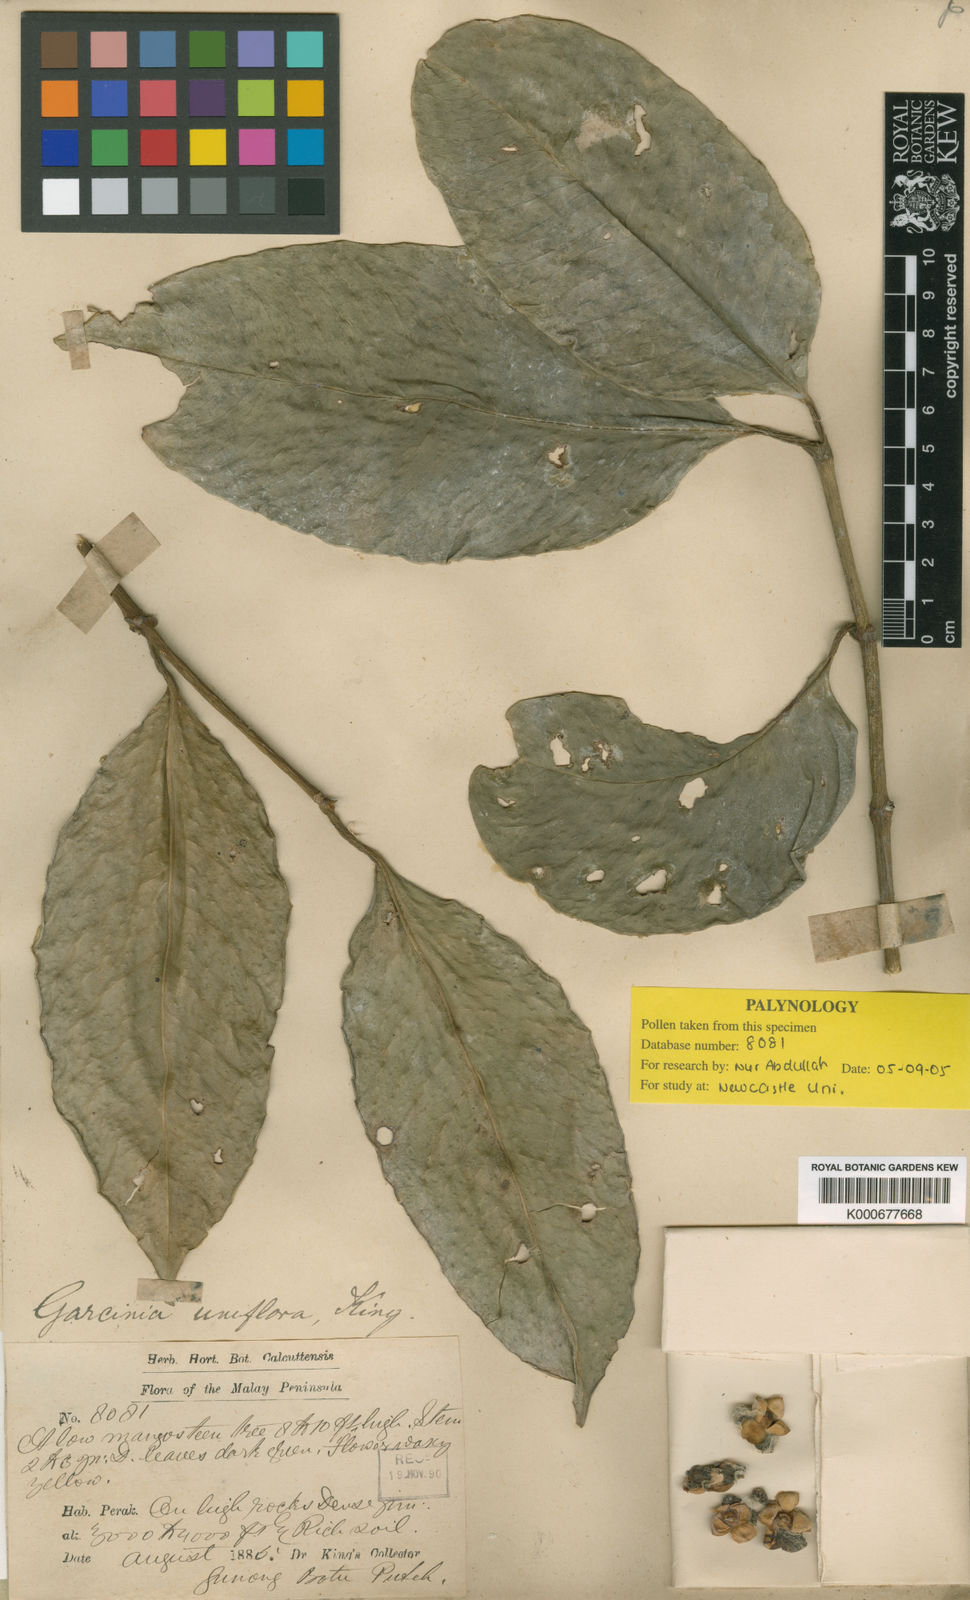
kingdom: Plantae
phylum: Tracheophyta
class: Magnoliopsida
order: Malpighiales
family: Clusiaceae
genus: Garcinia
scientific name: Garcinia uniflora
